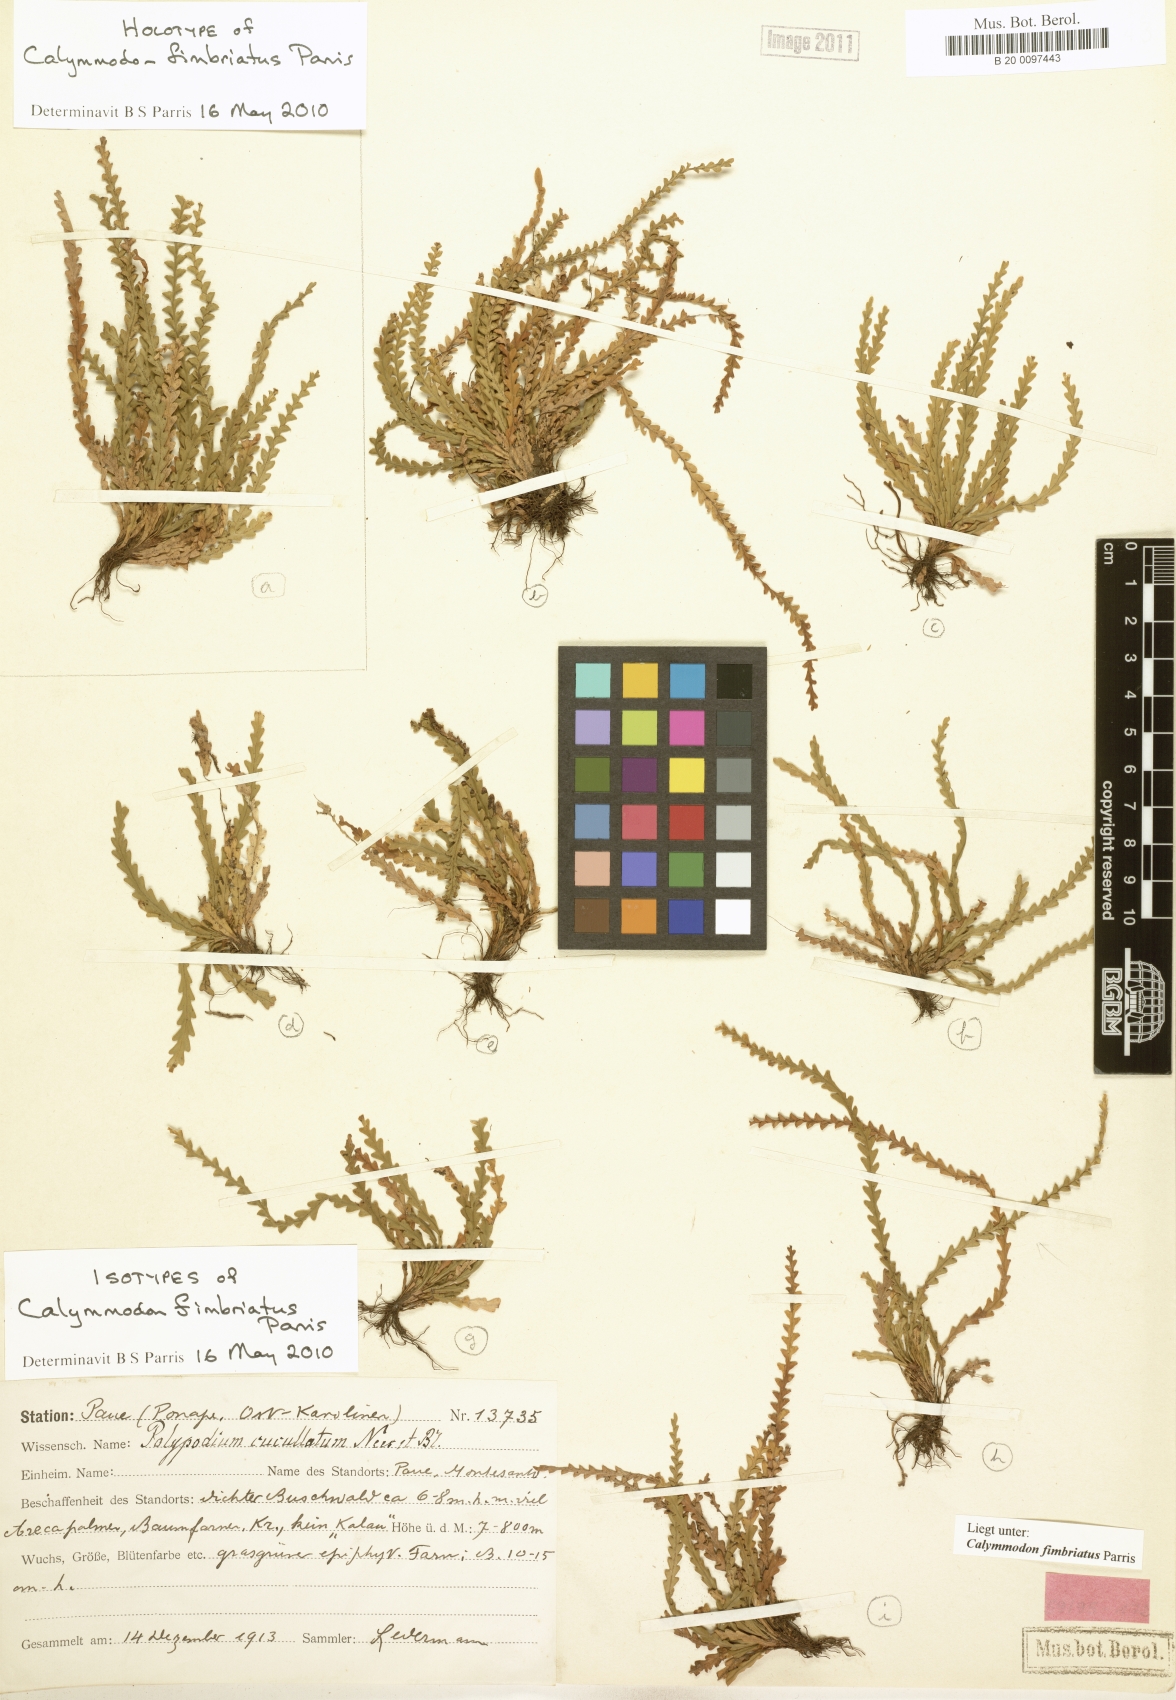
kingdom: Plantae
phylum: Tracheophyta
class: Polypodiopsida
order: Polypodiales
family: Polypodiaceae
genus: Calymmodon
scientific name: Calymmodon
